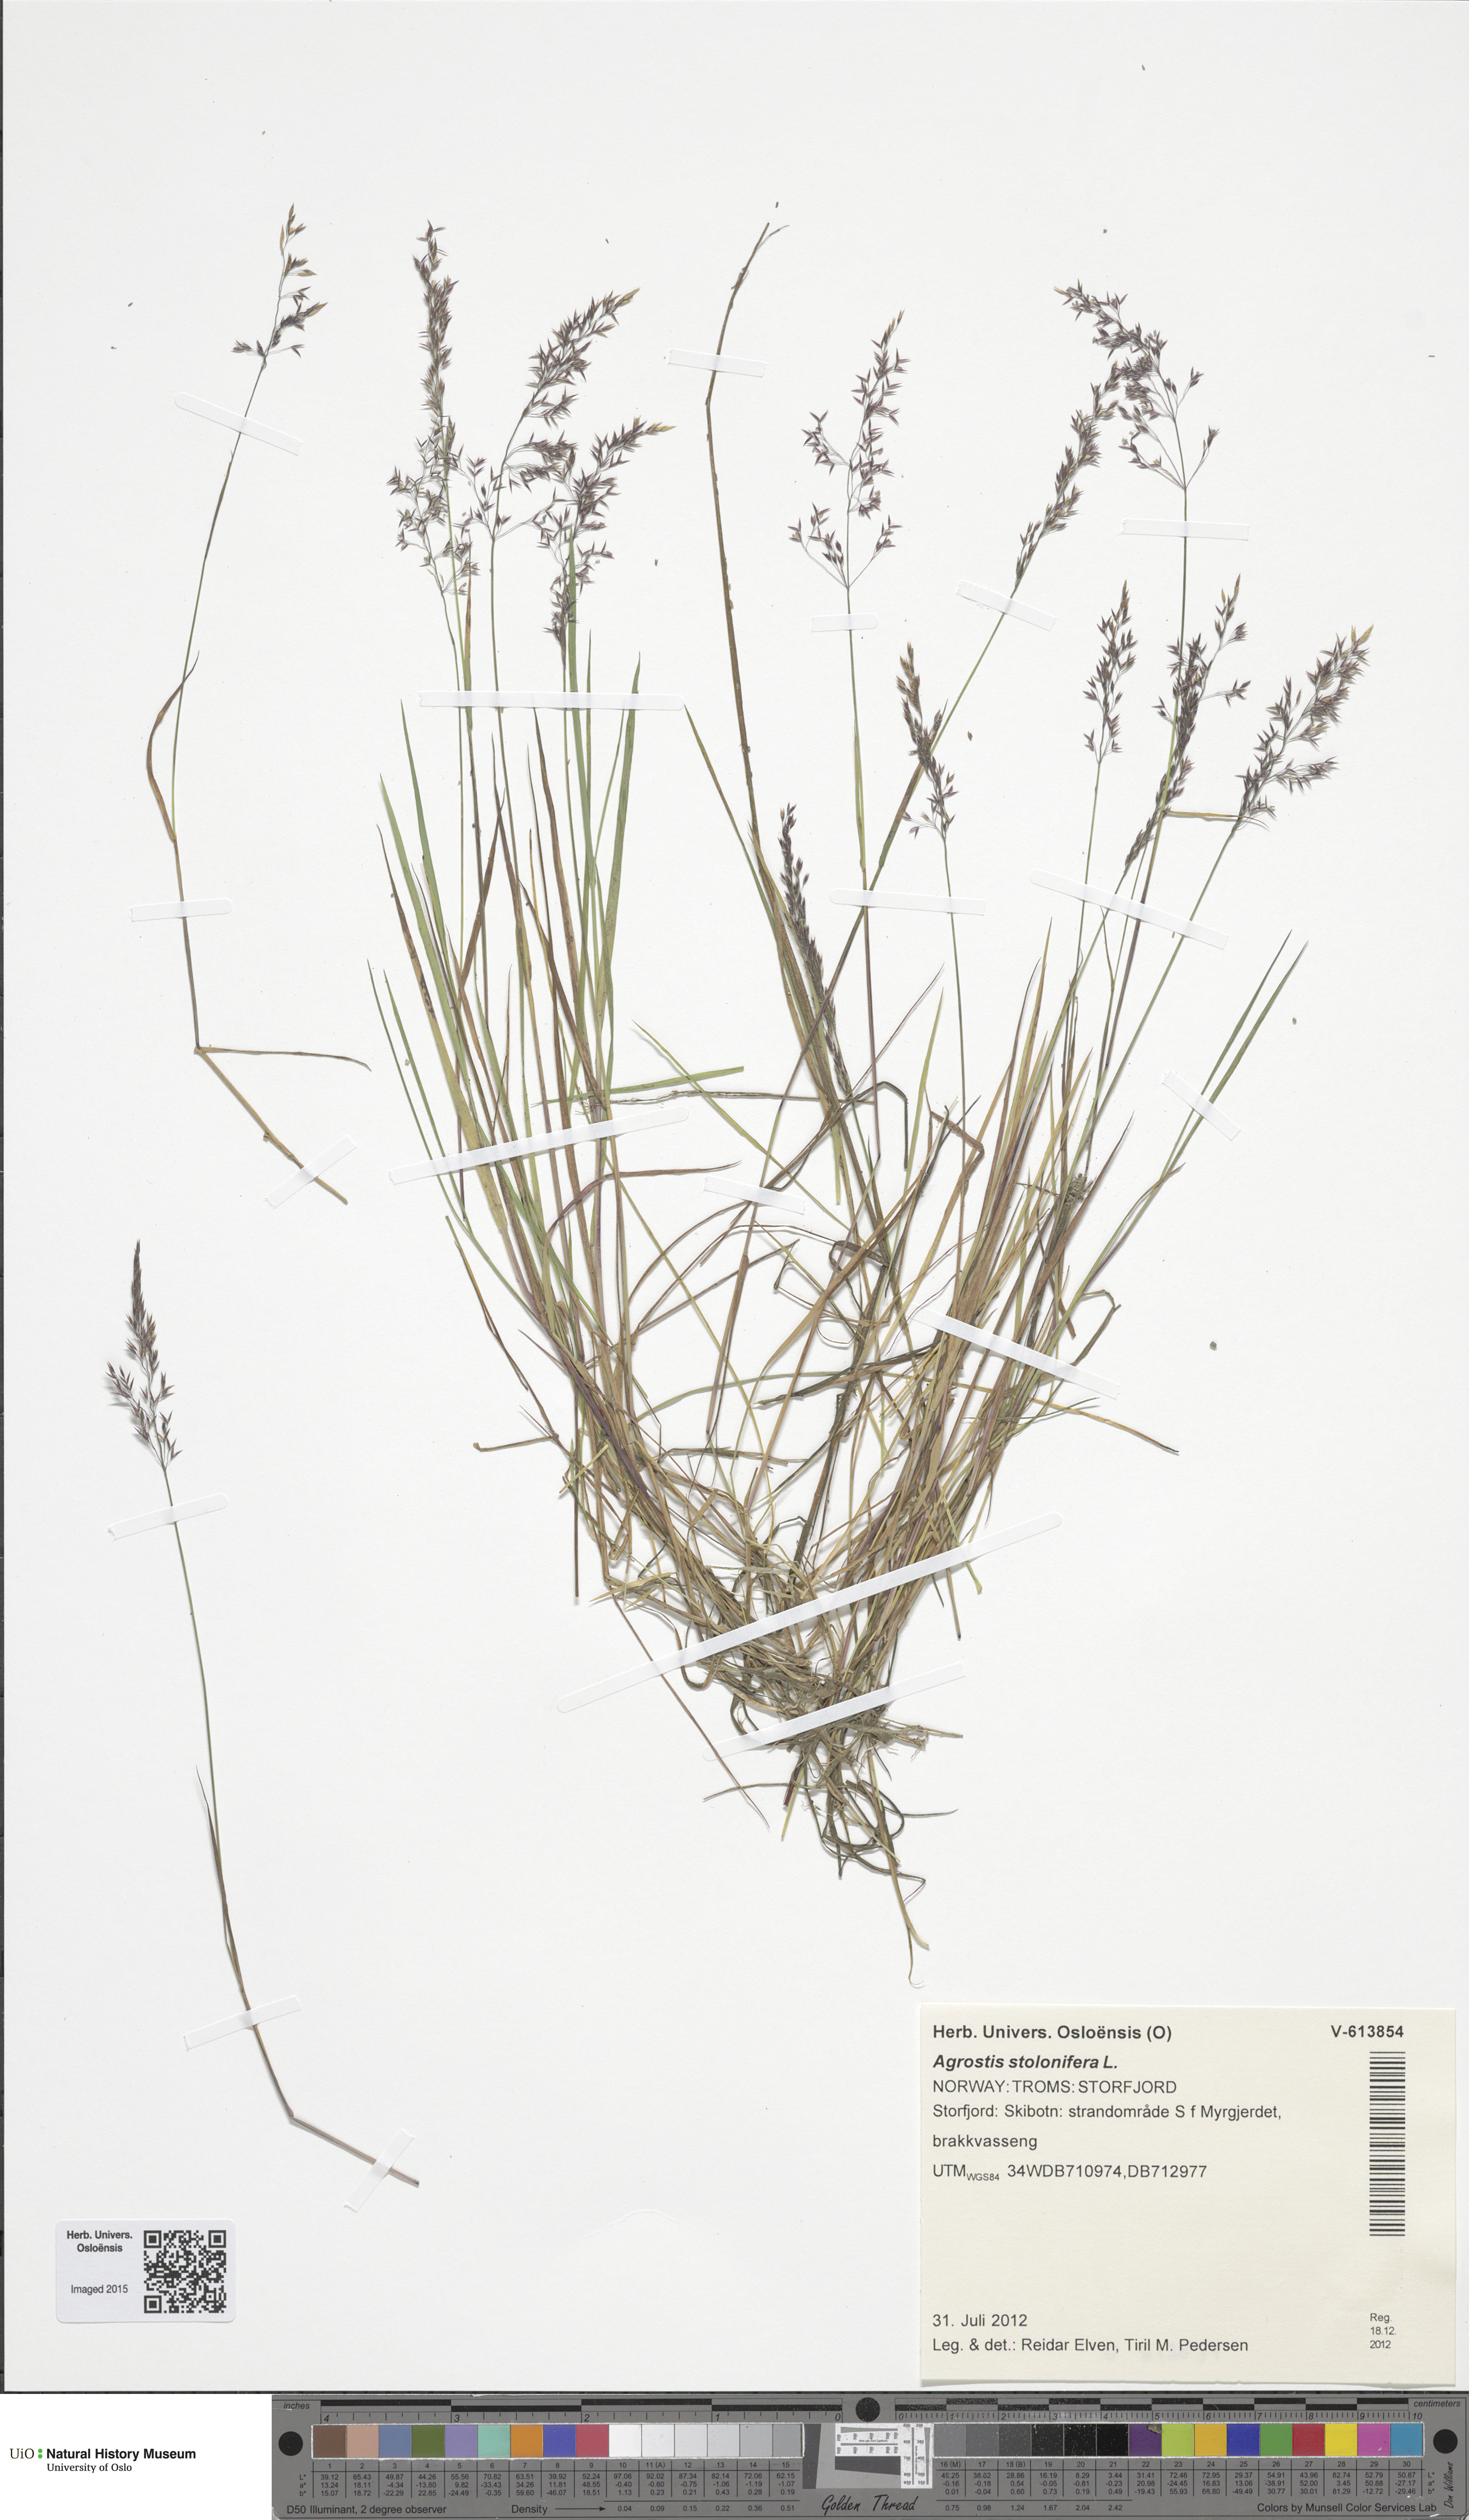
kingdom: Plantae
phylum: Tracheophyta
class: Liliopsida
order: Poales
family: Poaceae
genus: Agrostis
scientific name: Agrostis stolonifera
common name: Creeping bentgrass
